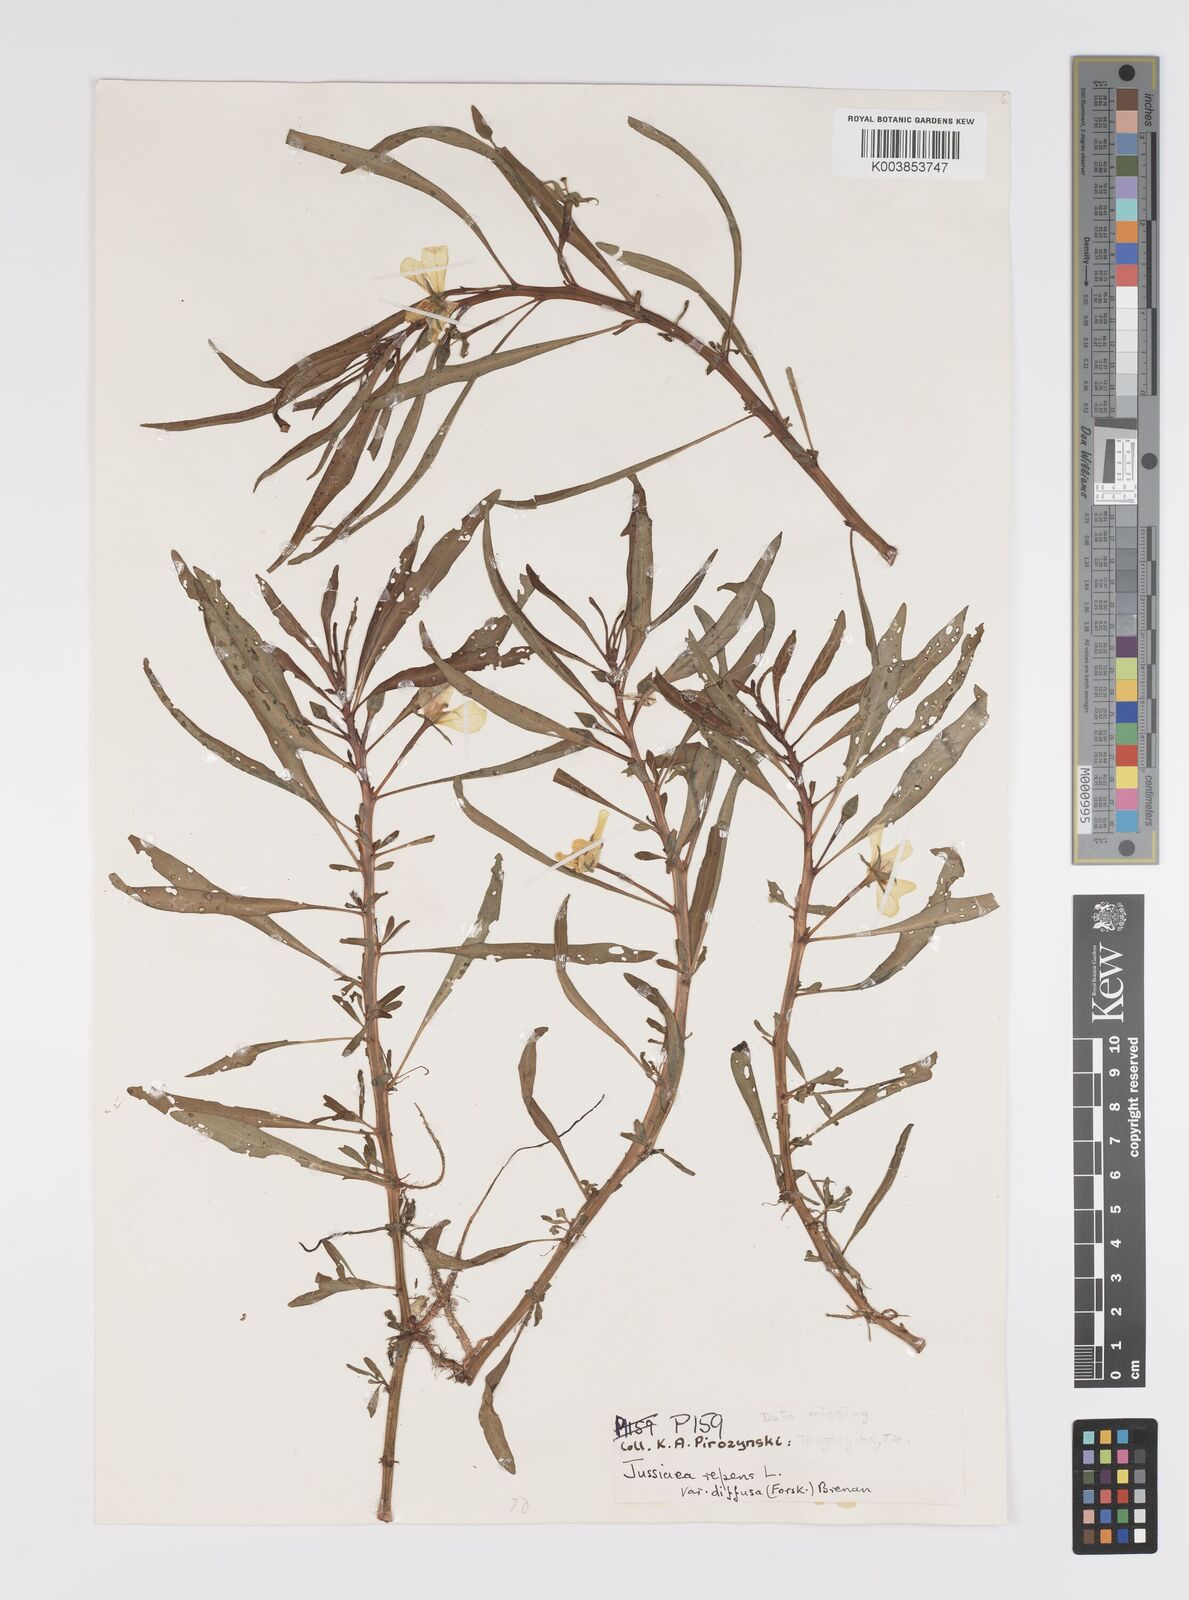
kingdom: Plantae
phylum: Tracheophyta
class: Magnoliopsida
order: Myrtales
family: Onagraceae
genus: Ludwigia
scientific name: Ludwigia adscendens
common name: Creeping water primrose
